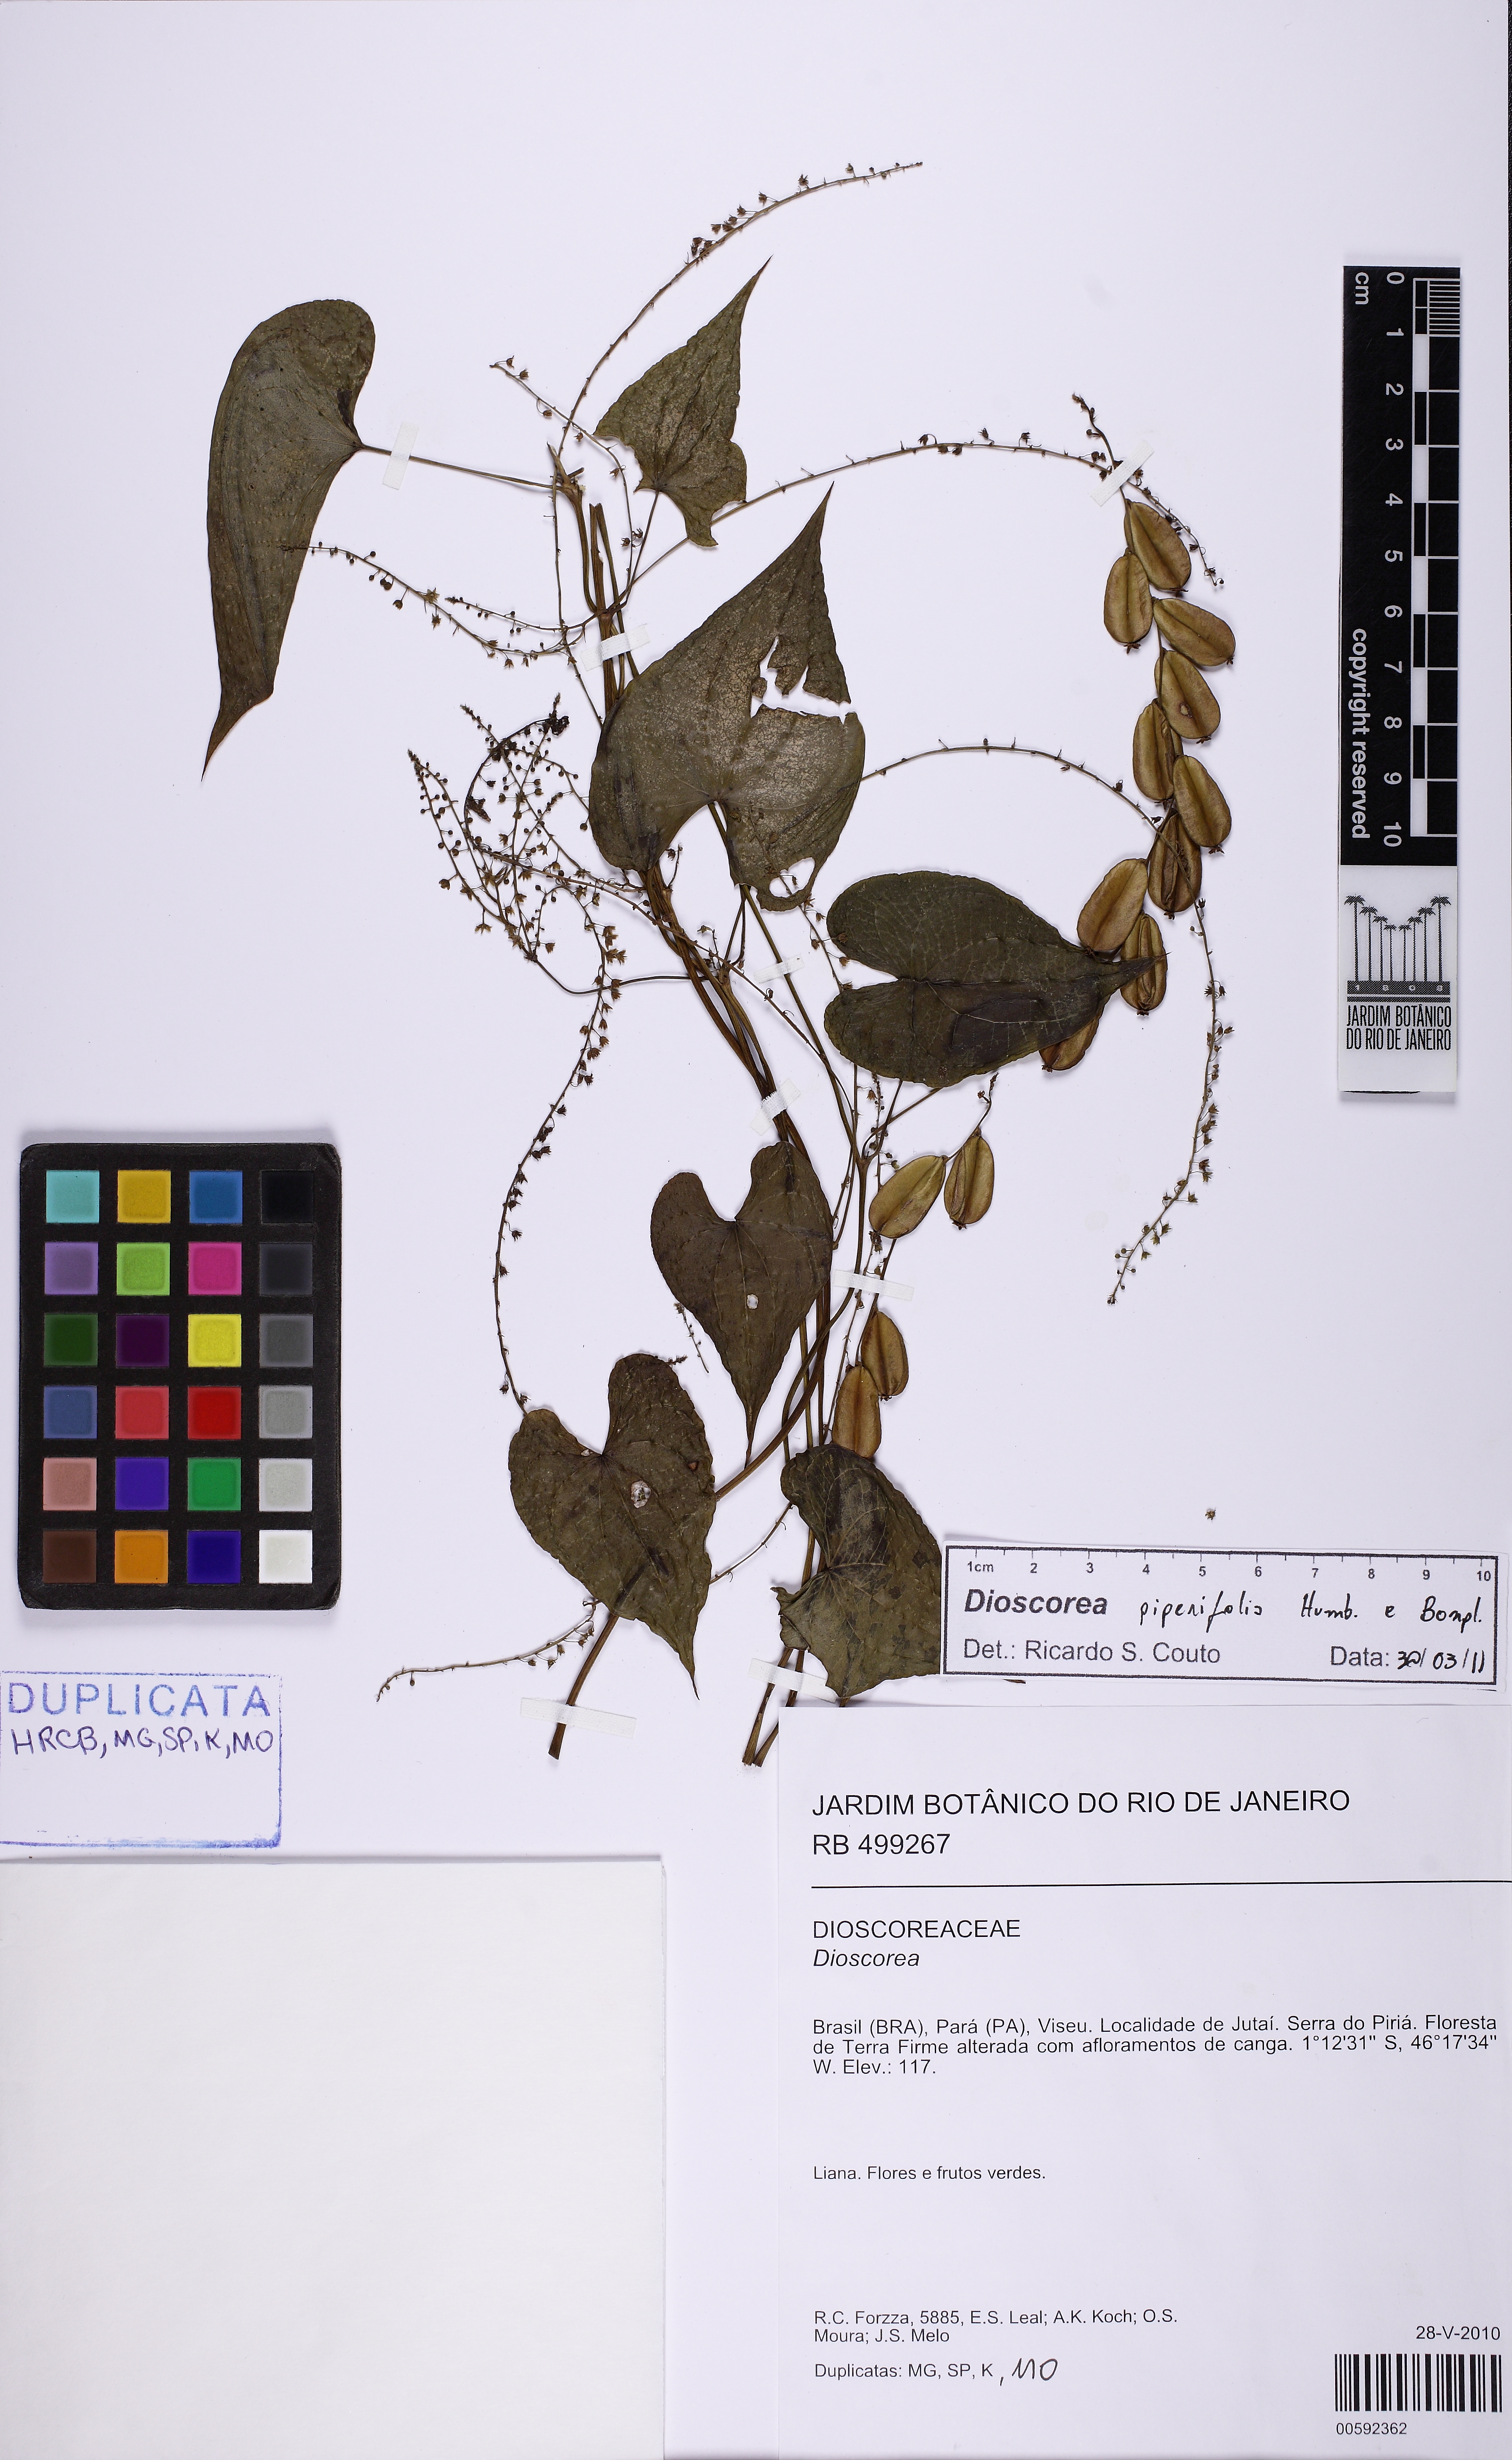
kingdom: Plantae
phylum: Tracheophyta
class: Liliopsida
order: Dioscoreales
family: Dioscoreaceae
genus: Dioscorea
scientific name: Dioscorea piperifolia
